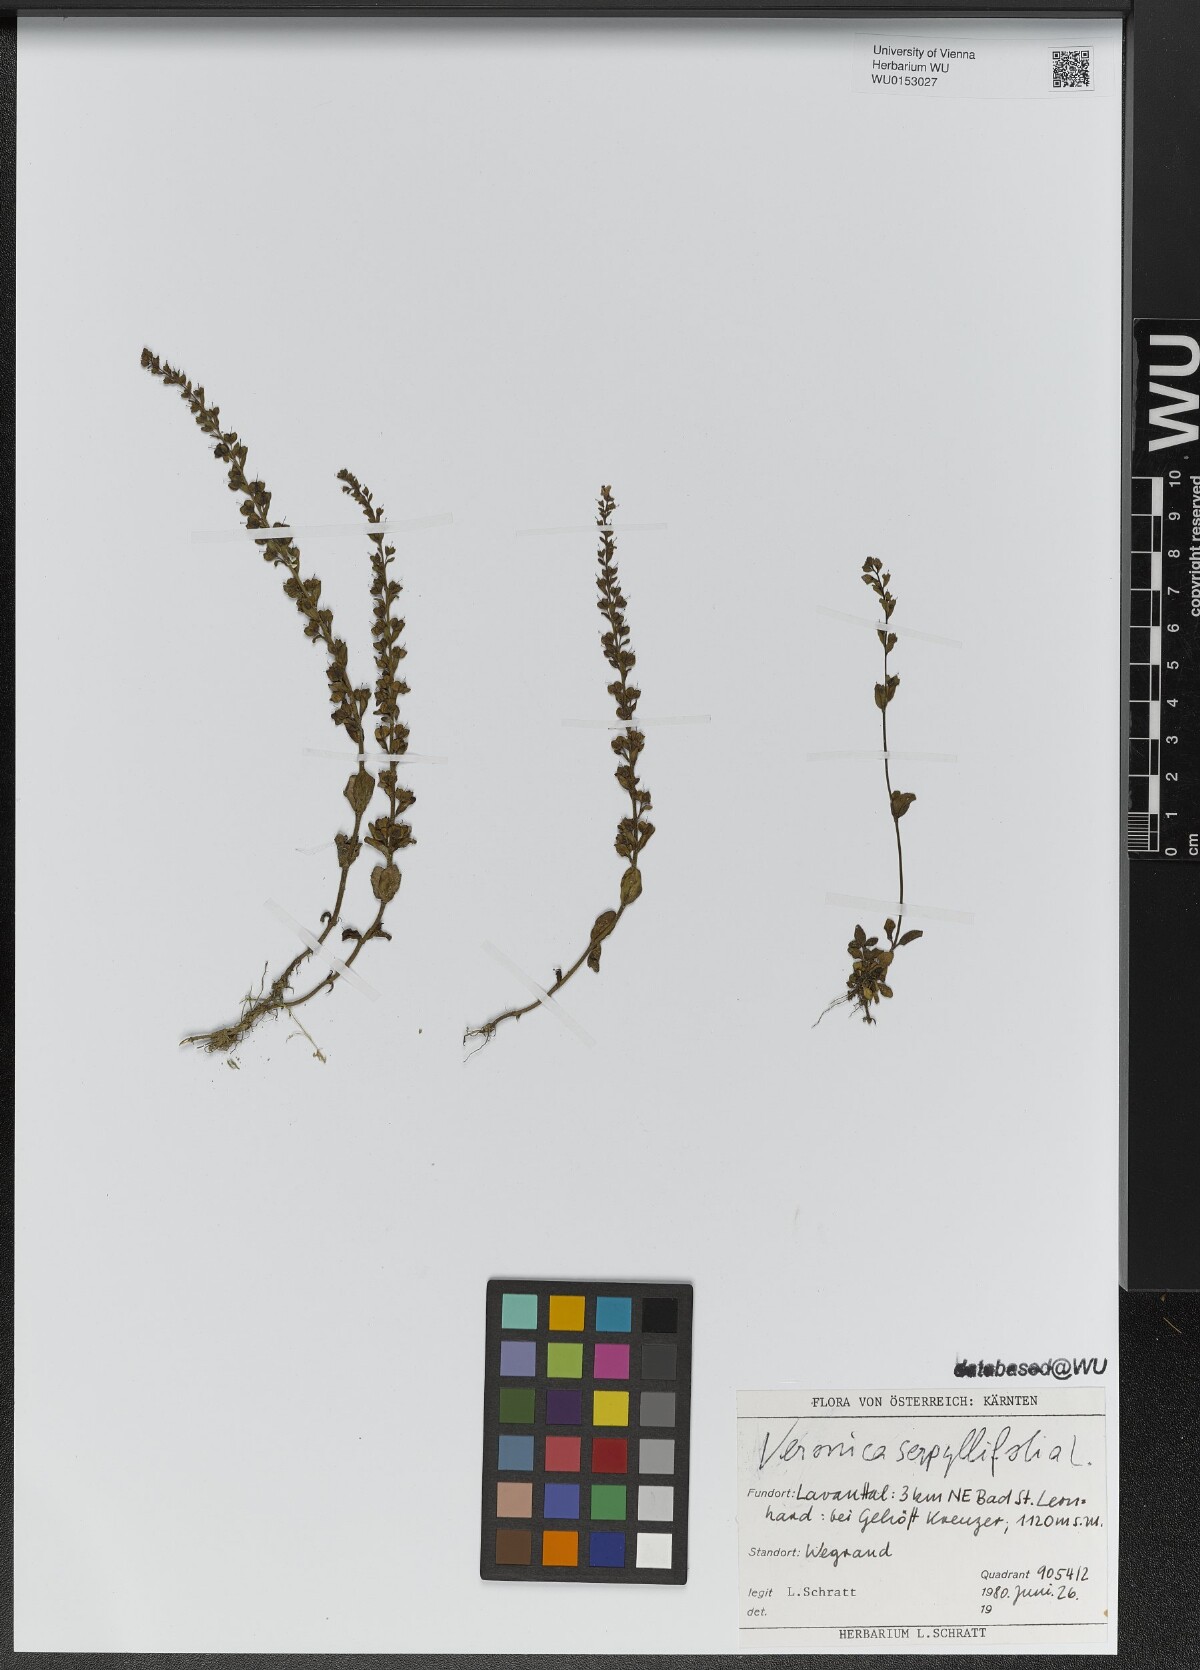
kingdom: Plantae
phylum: Tracheophyta
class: Magnoliopsida
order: Lamiales
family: Plantaginaceae
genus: Veronica
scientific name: Veronica serpyllifolia
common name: Thyme-leaved speedwell
